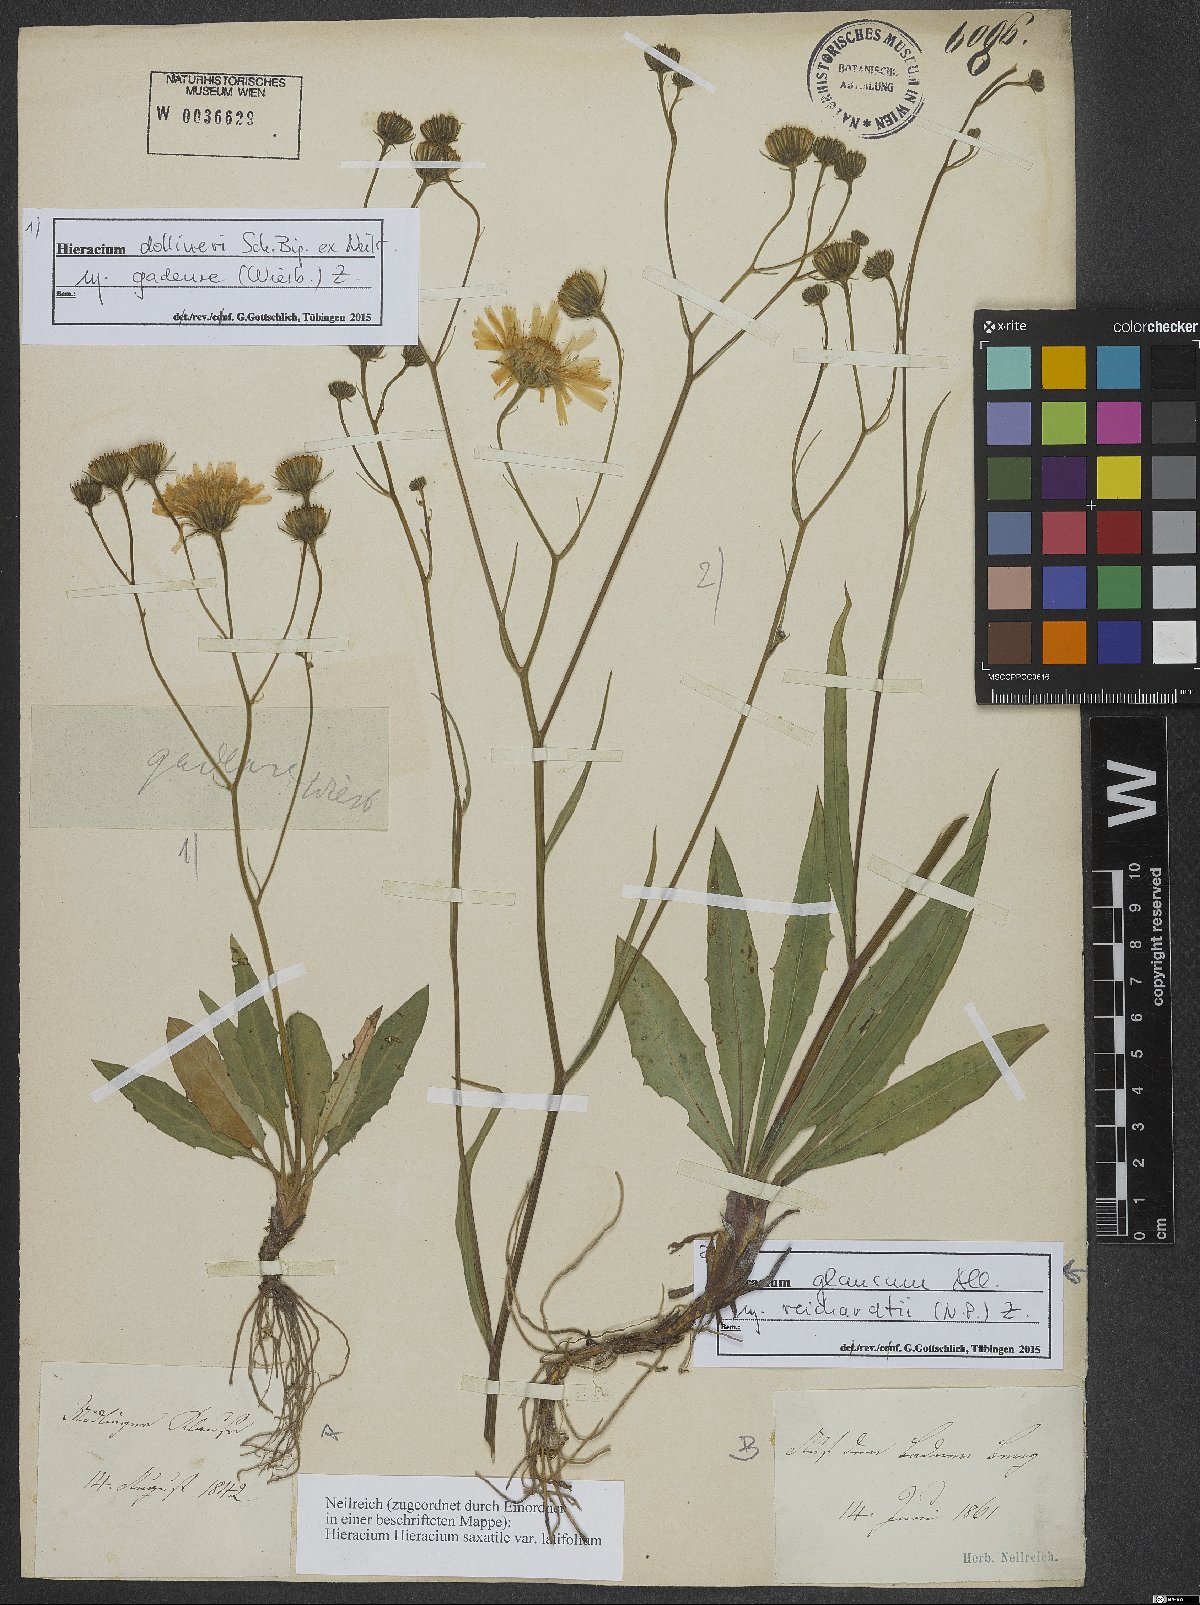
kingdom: Plantae
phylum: Tracheophyta
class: Magnoliopsida
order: Asterales
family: Asteraceae
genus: Hieracium
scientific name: Hieracium glaucum
